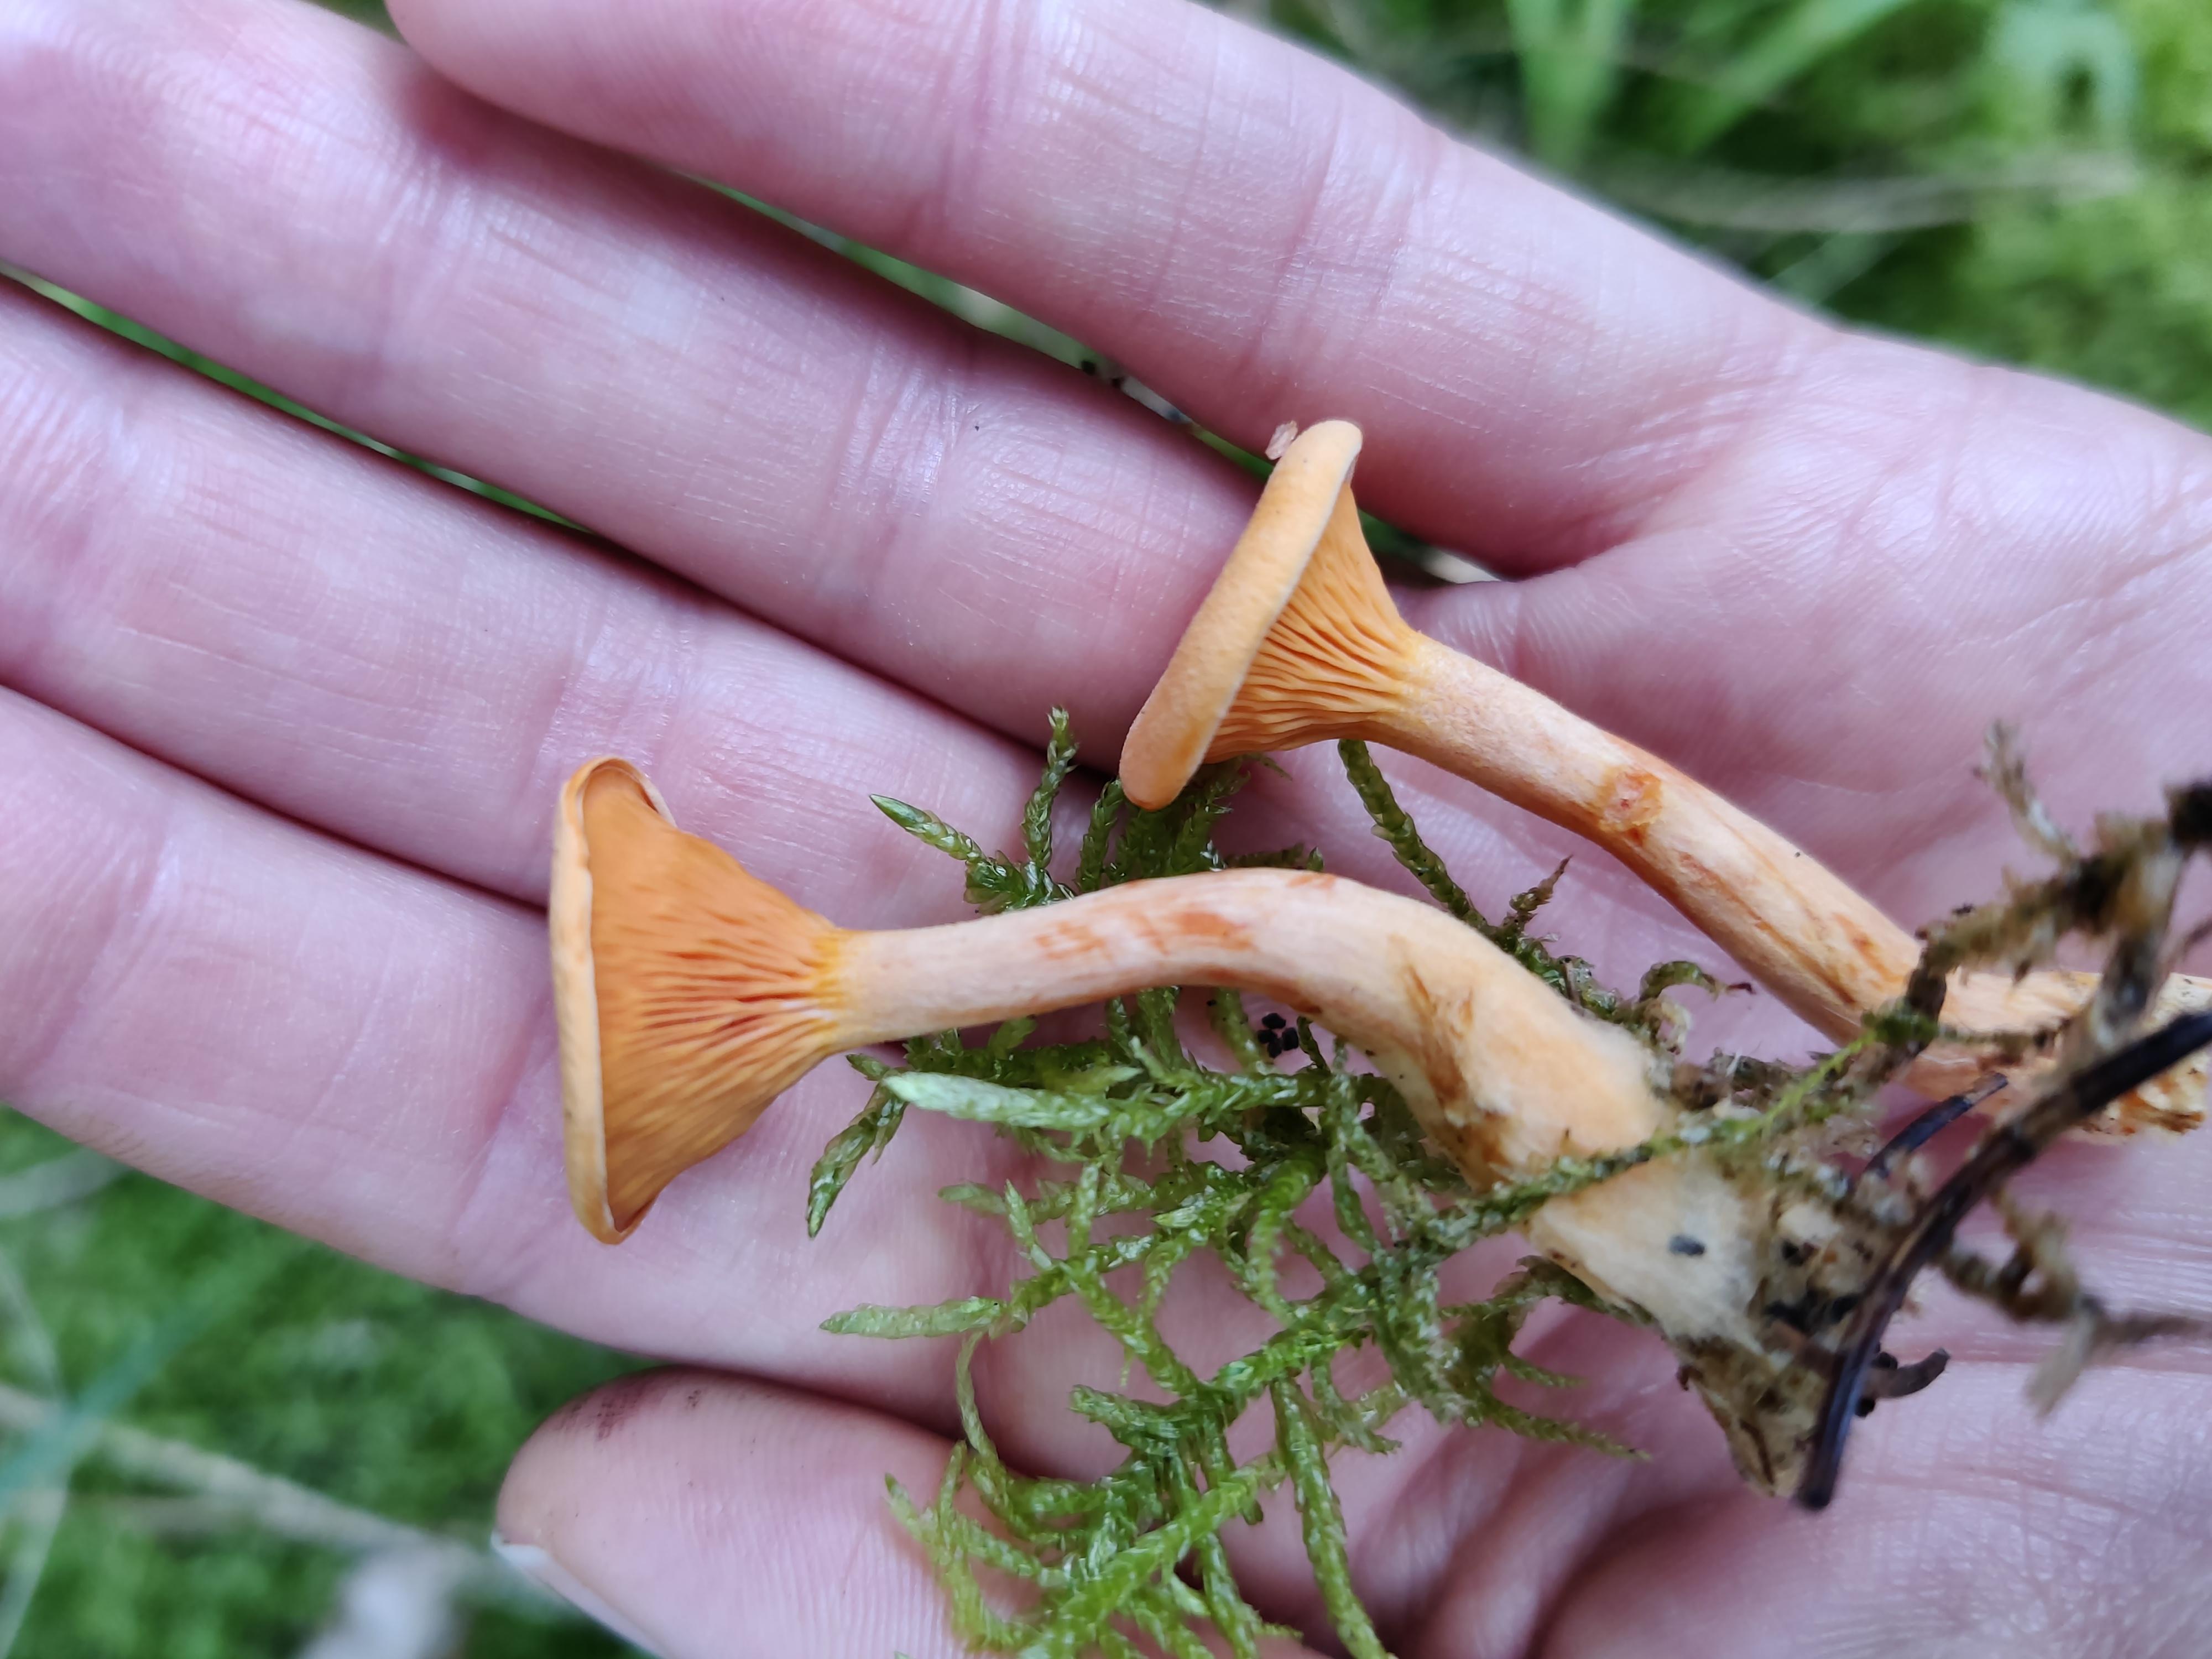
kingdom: Fungi
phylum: Basidiomycota
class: Agaricomycetes
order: Boletales
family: Hygrophoropsidaceae
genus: Hygrophoropsis
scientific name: Hygrophoropsis aurantiaca
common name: almindelig orangekantarel
